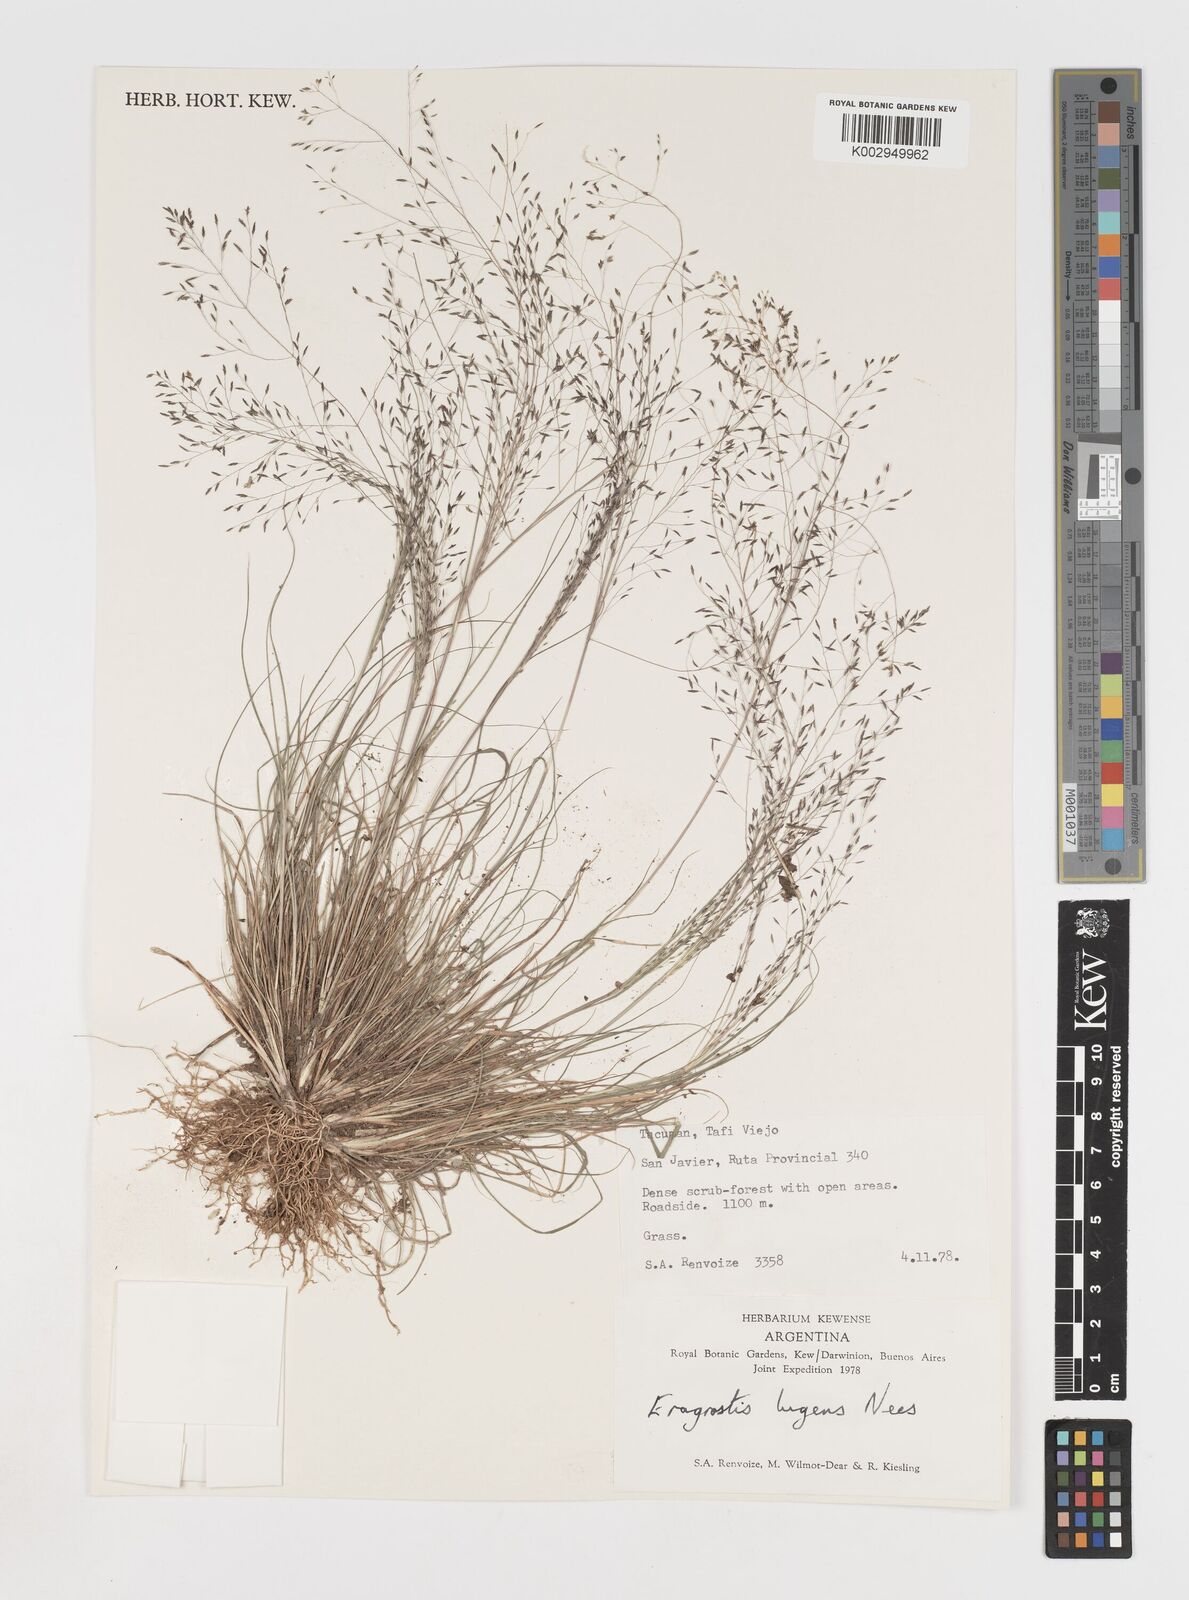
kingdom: Plantae
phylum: Tracheophyta
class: Liliopsida
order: Poales
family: Poaceae
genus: Eragrostis
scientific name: Eragrostis
